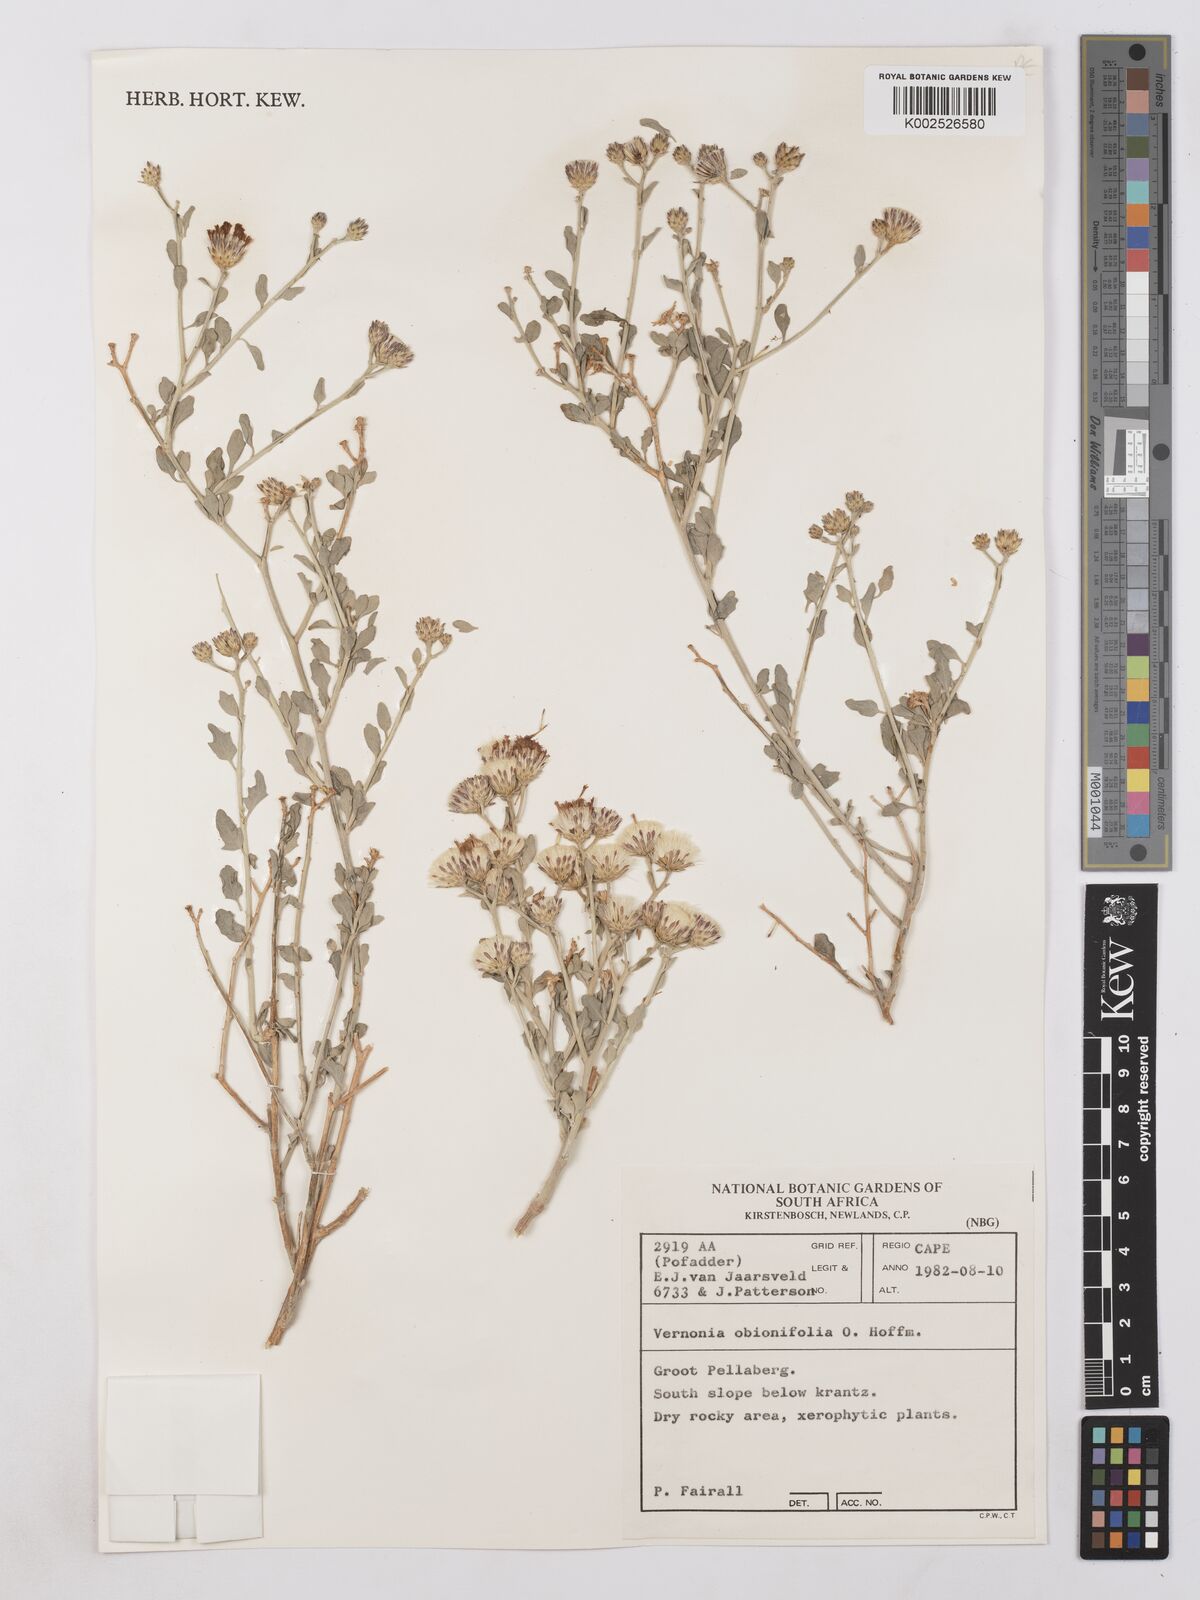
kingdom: Plantae
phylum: Tracheophyta
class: Magnoliopsida
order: Asterales
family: Asteraceae
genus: Namibithamnus
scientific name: Namibithamnus obionifolius
